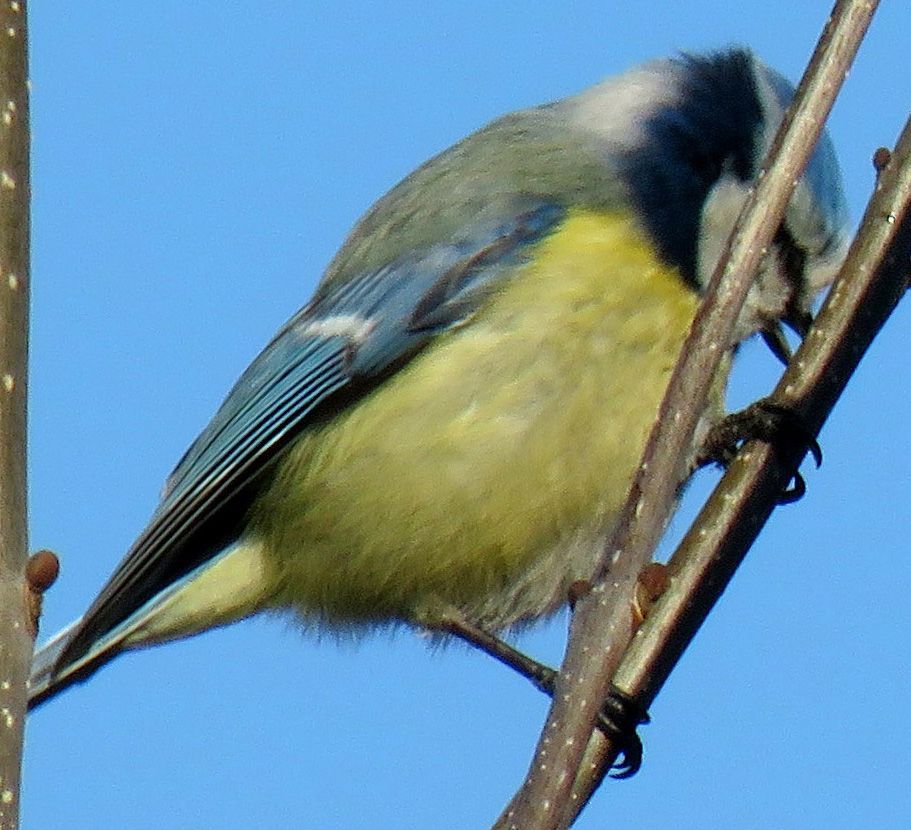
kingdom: Animalia
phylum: Chordata
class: Aves
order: Passeriformes
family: Paridae
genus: Cyanistes
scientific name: Cyanistes caeruleus
